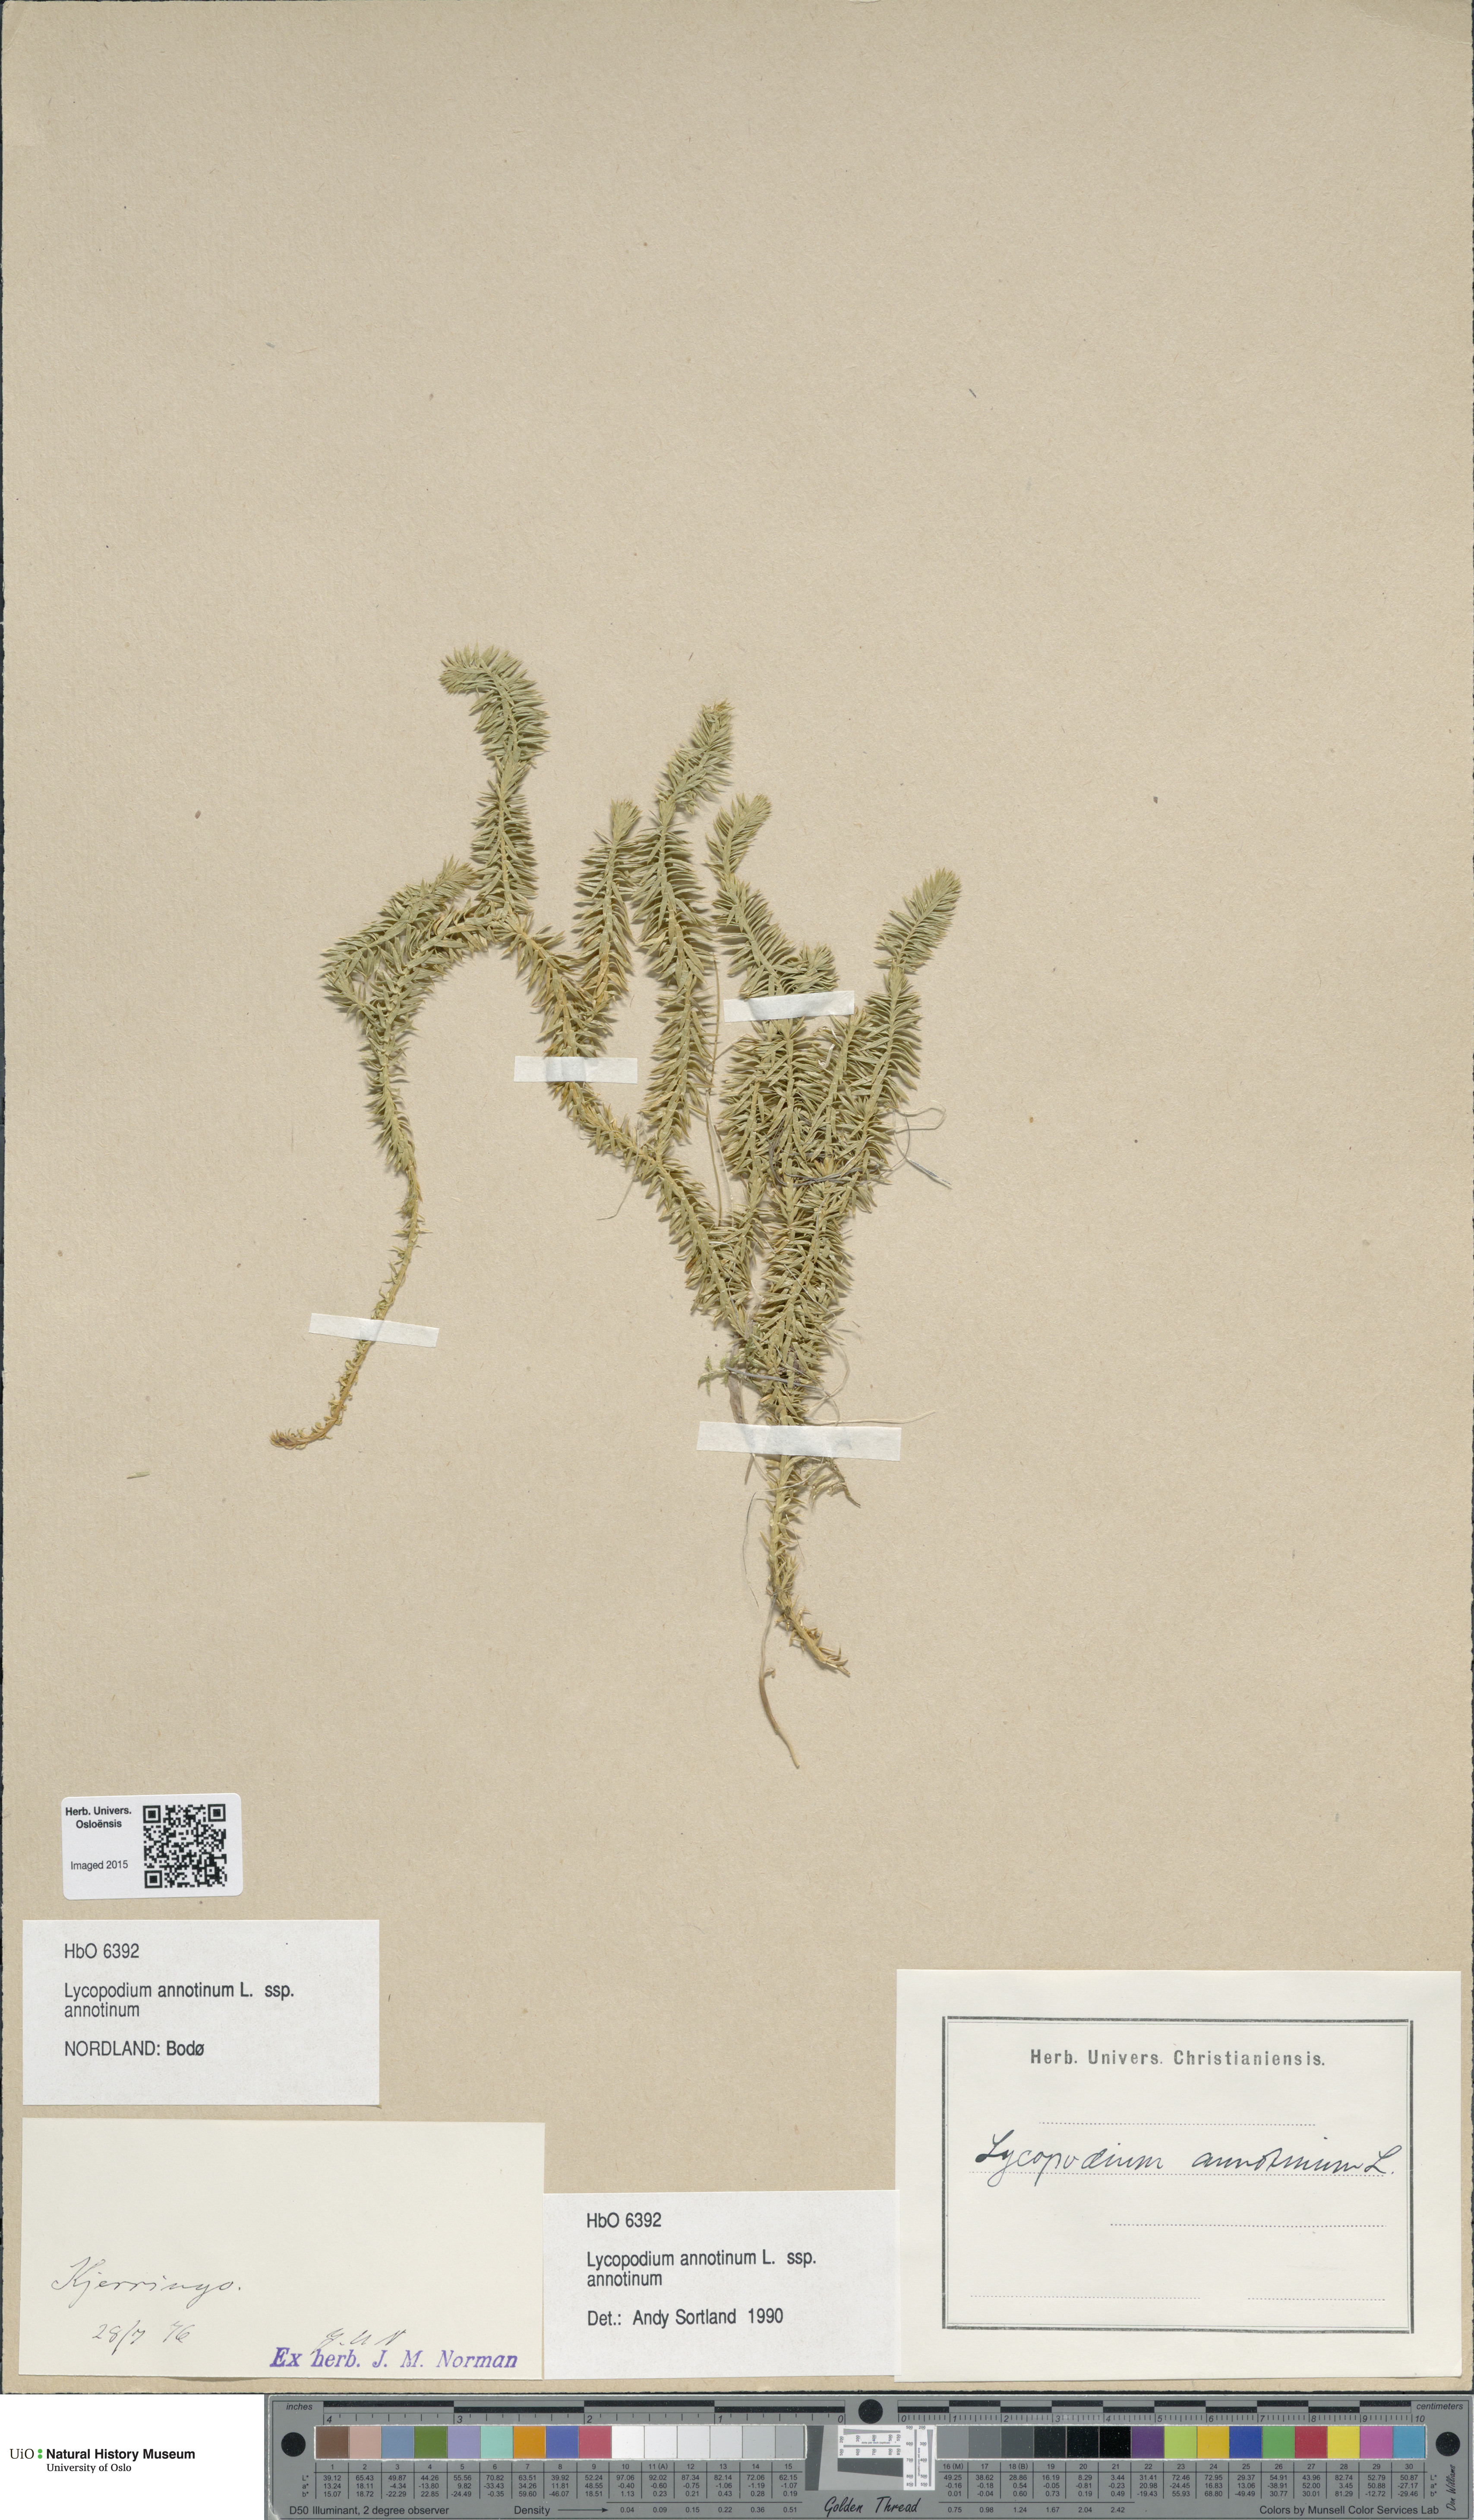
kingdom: Plantae
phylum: Tracheophyta
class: Lycopodiopsida
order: Lycopodiales
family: Lycopodiaceae
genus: Spinulum
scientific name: Spinulum annotinum
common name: Interrupted club-moss
